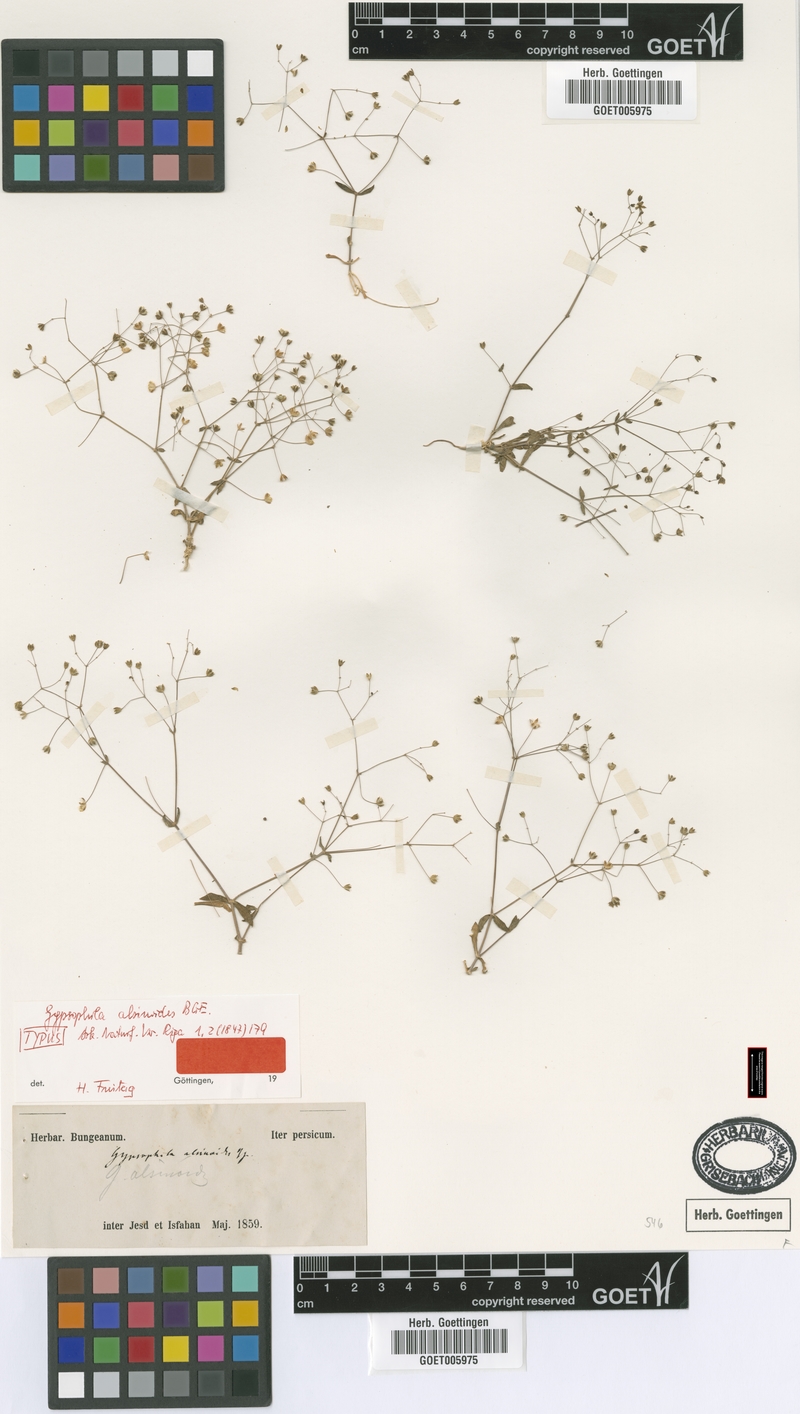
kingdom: Plantae
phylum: Tracheophyta
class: Magnoliopsida
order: Caryophyllales
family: Caryophyllaceae
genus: Gypsophila
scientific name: Gypsophila alsinoides
